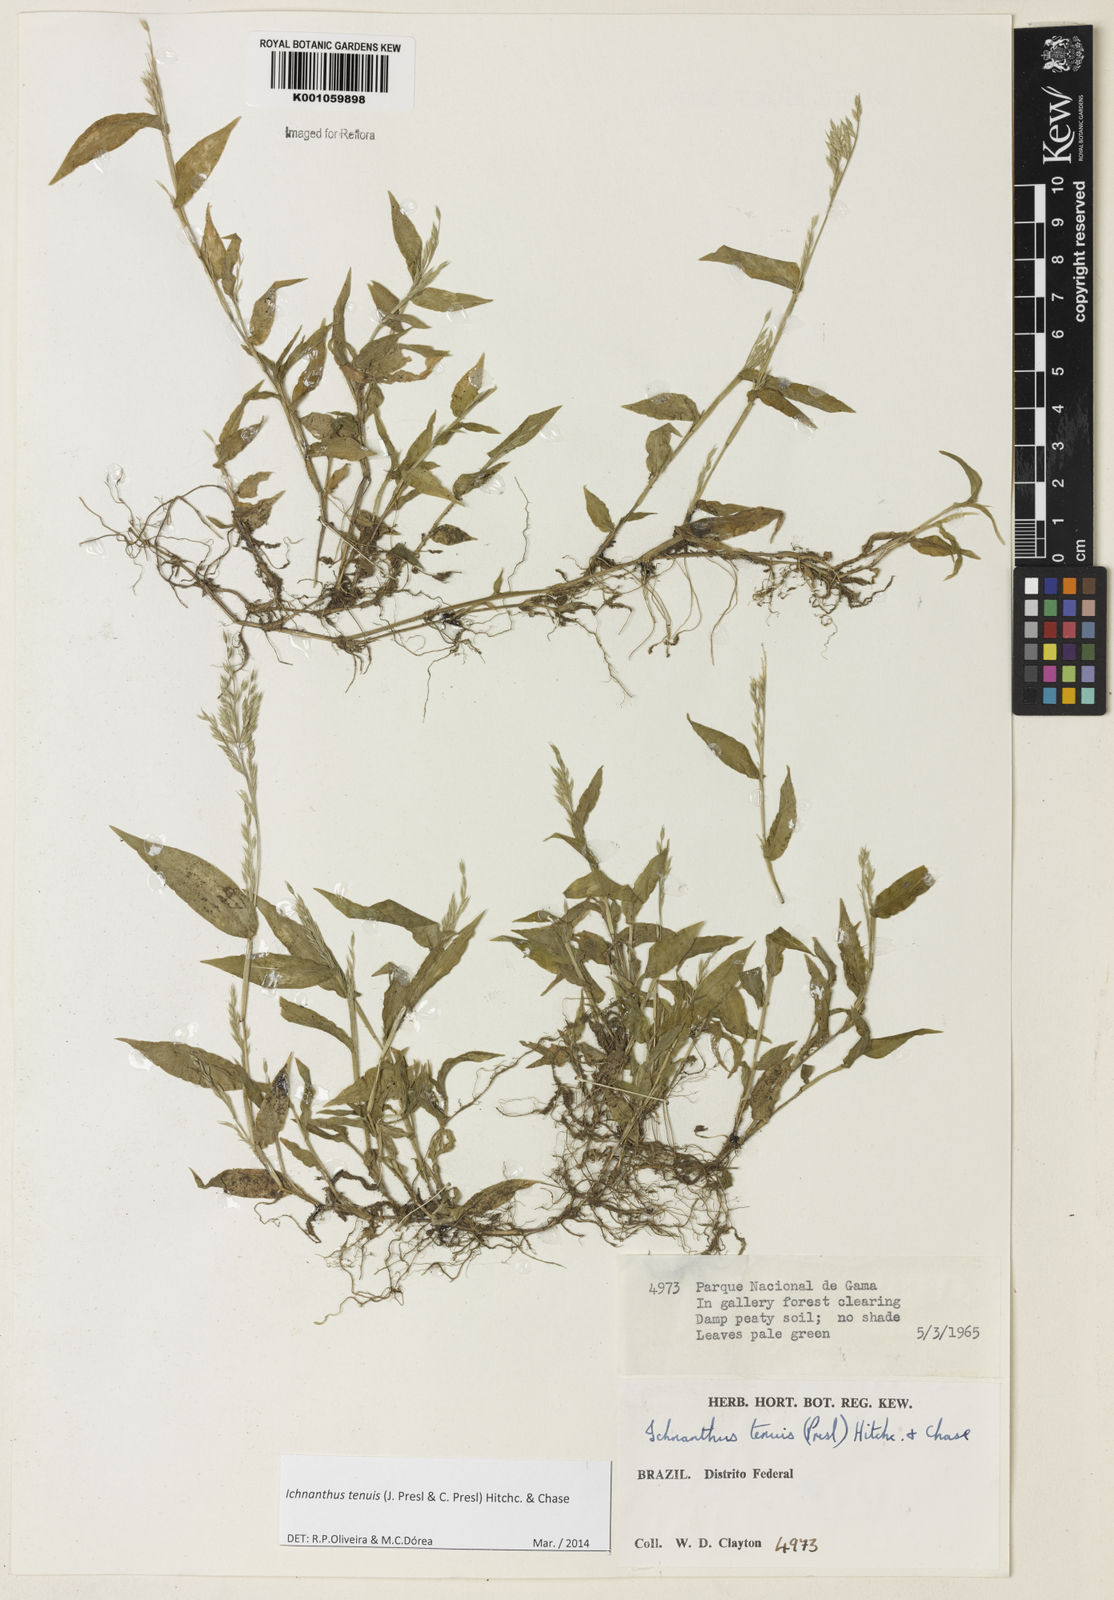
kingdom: Plantae
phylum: Tracheophyta
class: Liliopsida
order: Poales
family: Poaceae
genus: Ichnanthus
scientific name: Ichnanthus tenuis
